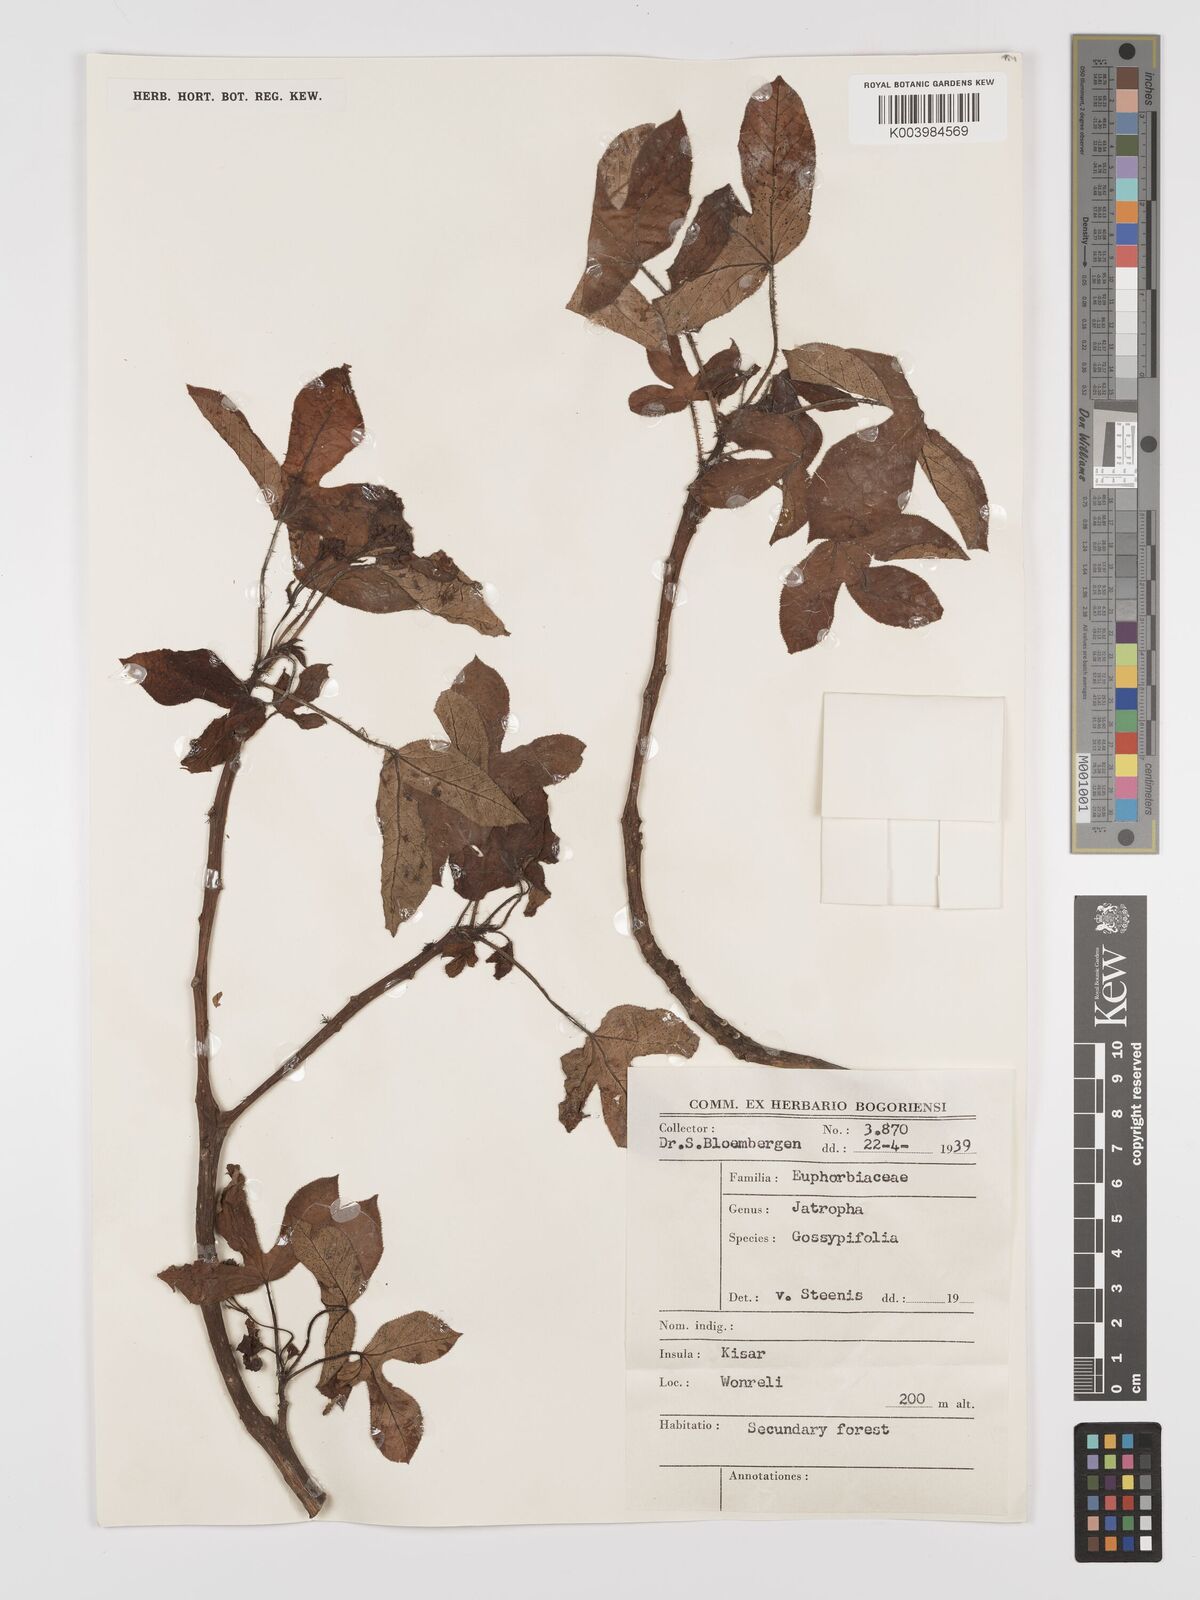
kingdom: Plantae
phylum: Tracheophyta
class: Magnoliopsida
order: Malpighiales
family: Euphorbiaceae
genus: Jatropha
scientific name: Jatropha gossypiifolia
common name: Bellyache bush
